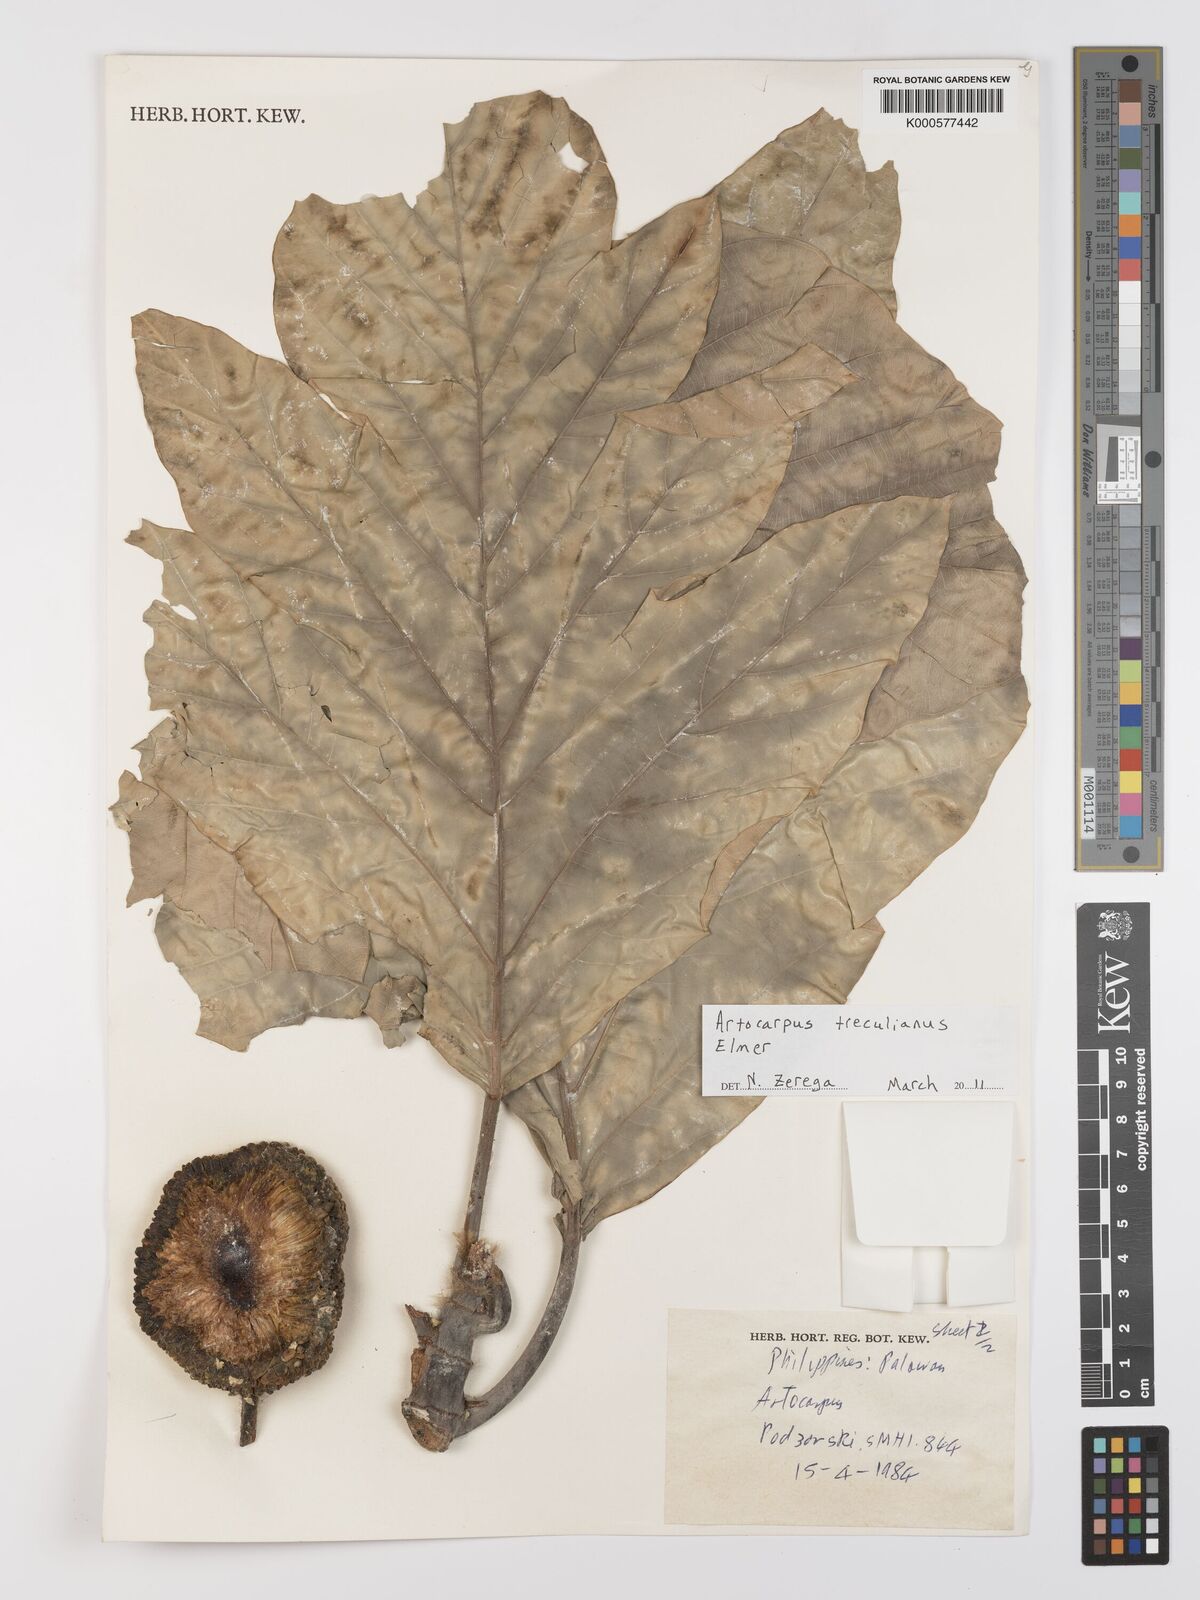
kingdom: Plantae
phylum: Tracheophyta
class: Magnoliopsida
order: Rosales
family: Moraceae
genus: Artocarpus
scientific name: Artocarpus
